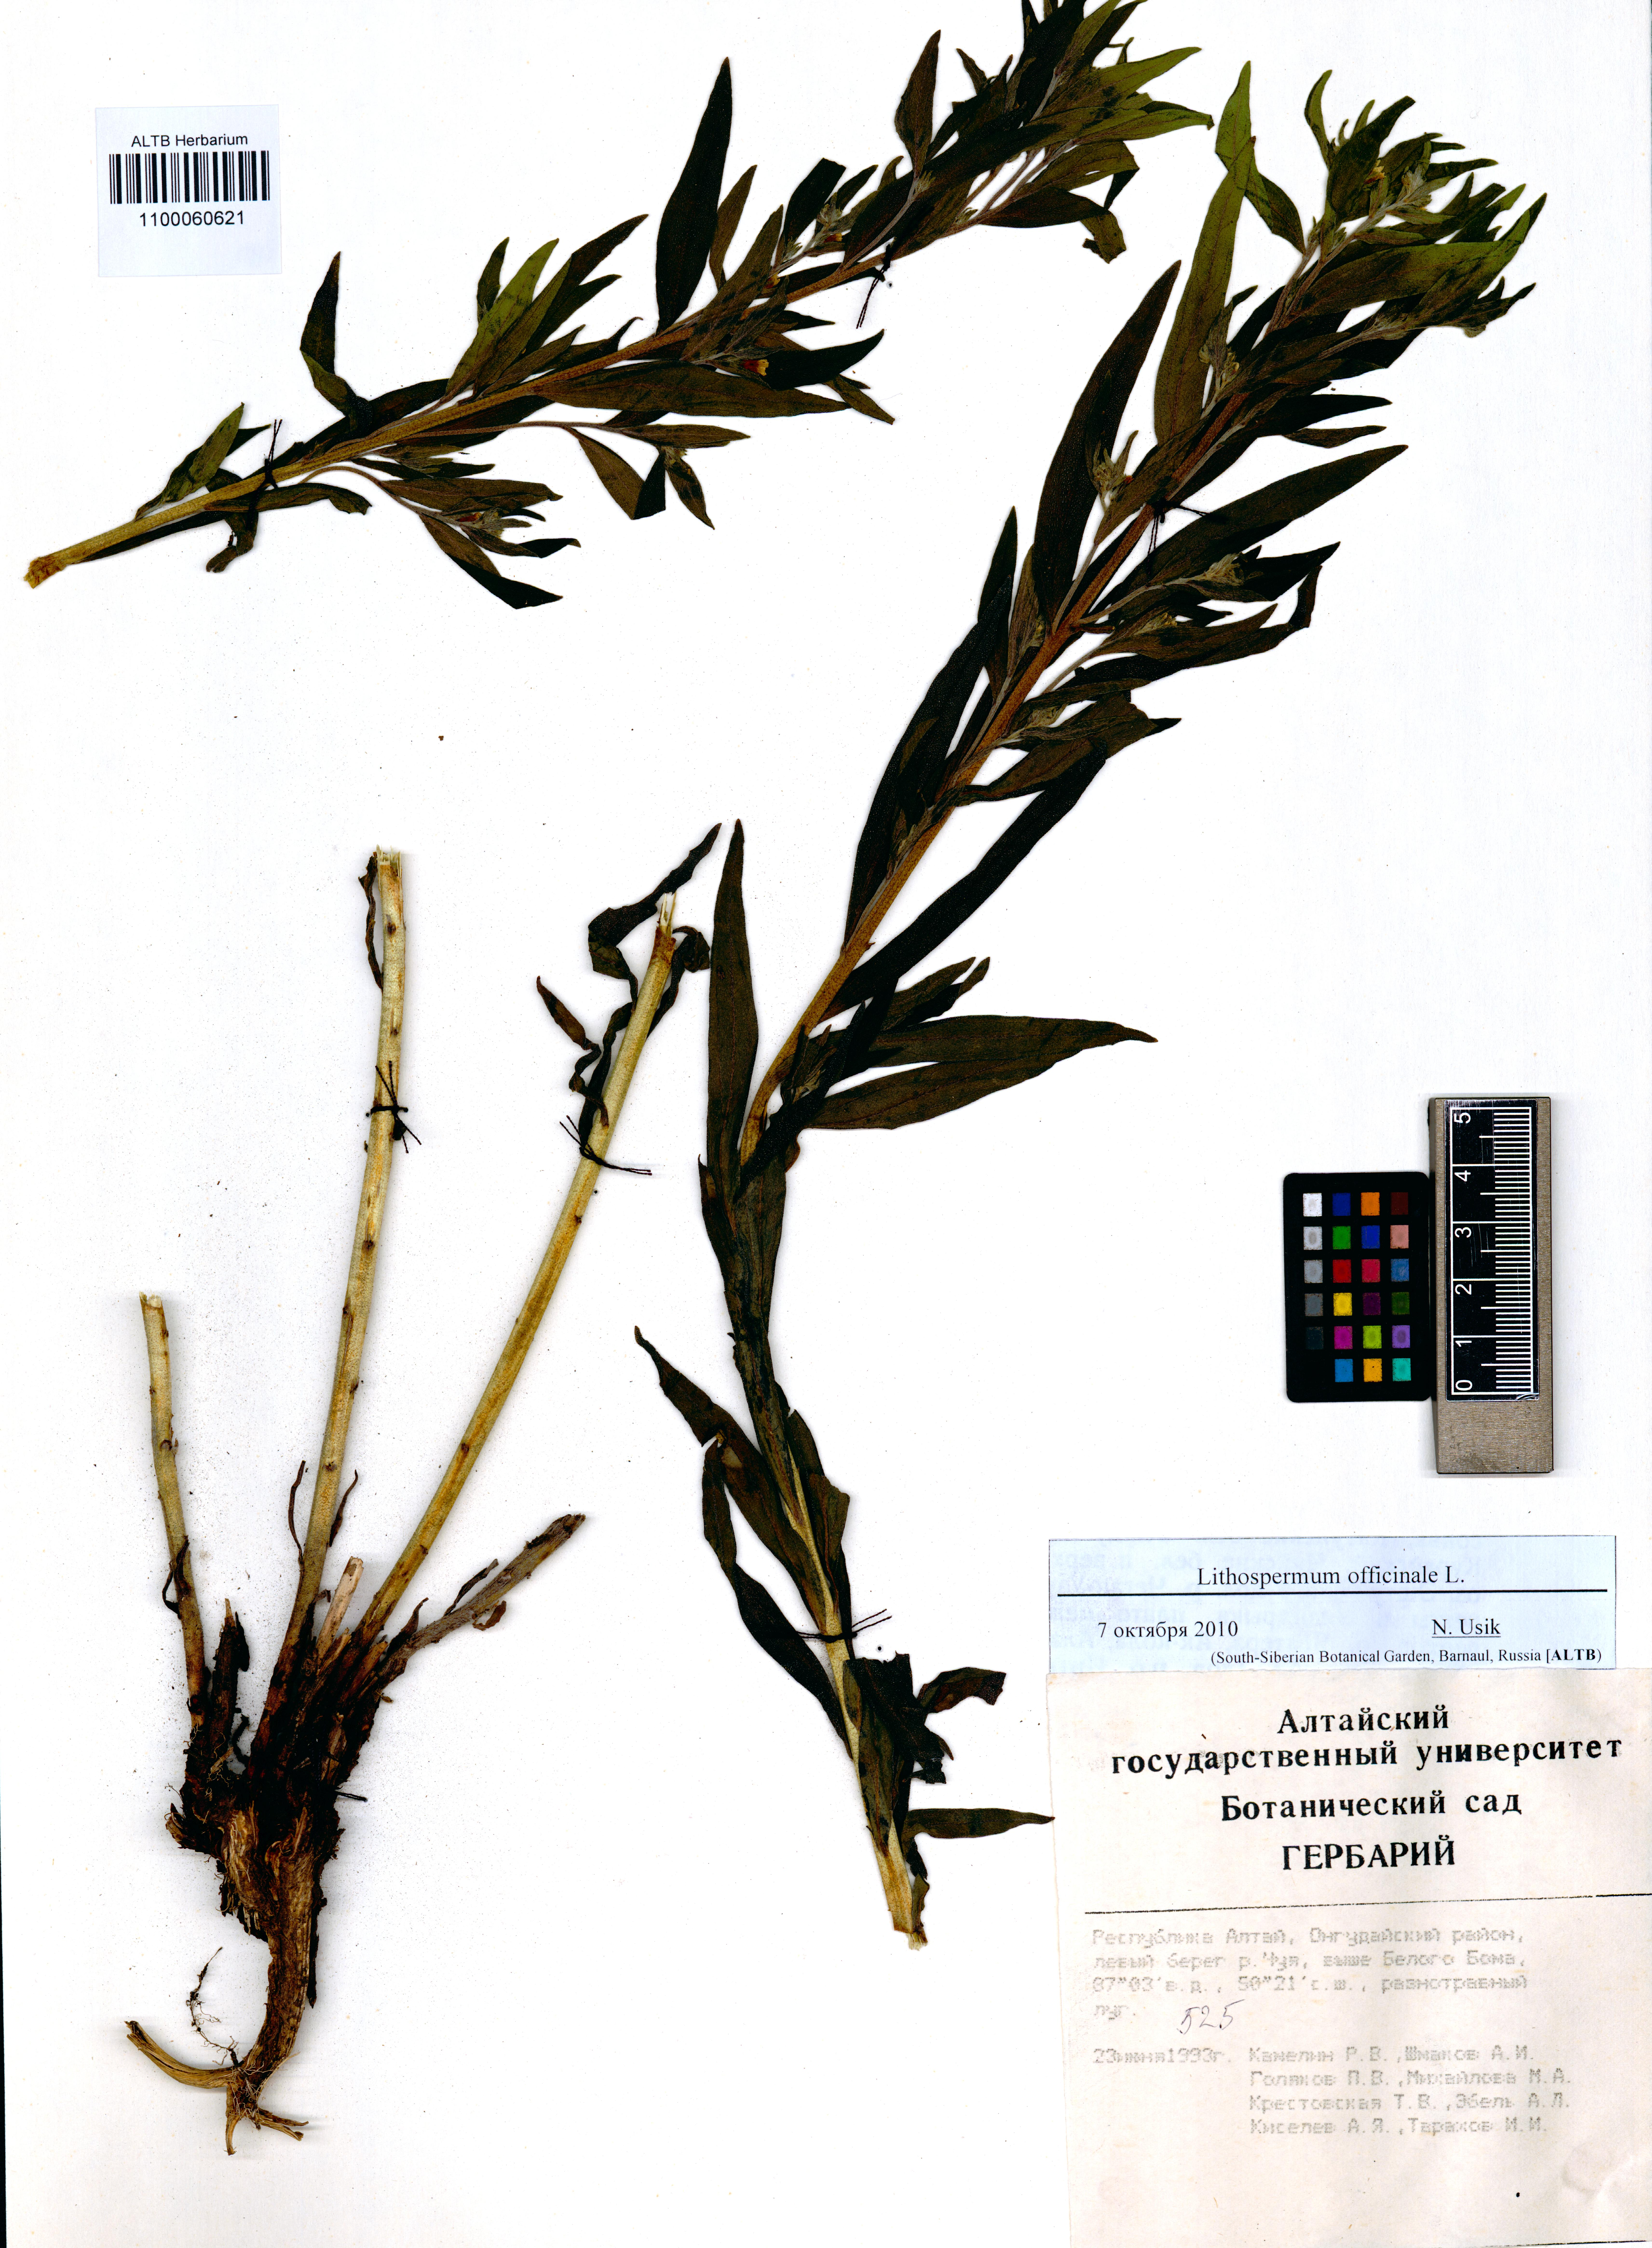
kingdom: Plantae
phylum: Tracheophyta
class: Magnoliopsida
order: Boraginales
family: Boraginaceae
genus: Lithospermum
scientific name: Lithospermum officinale
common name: Common gromwell
